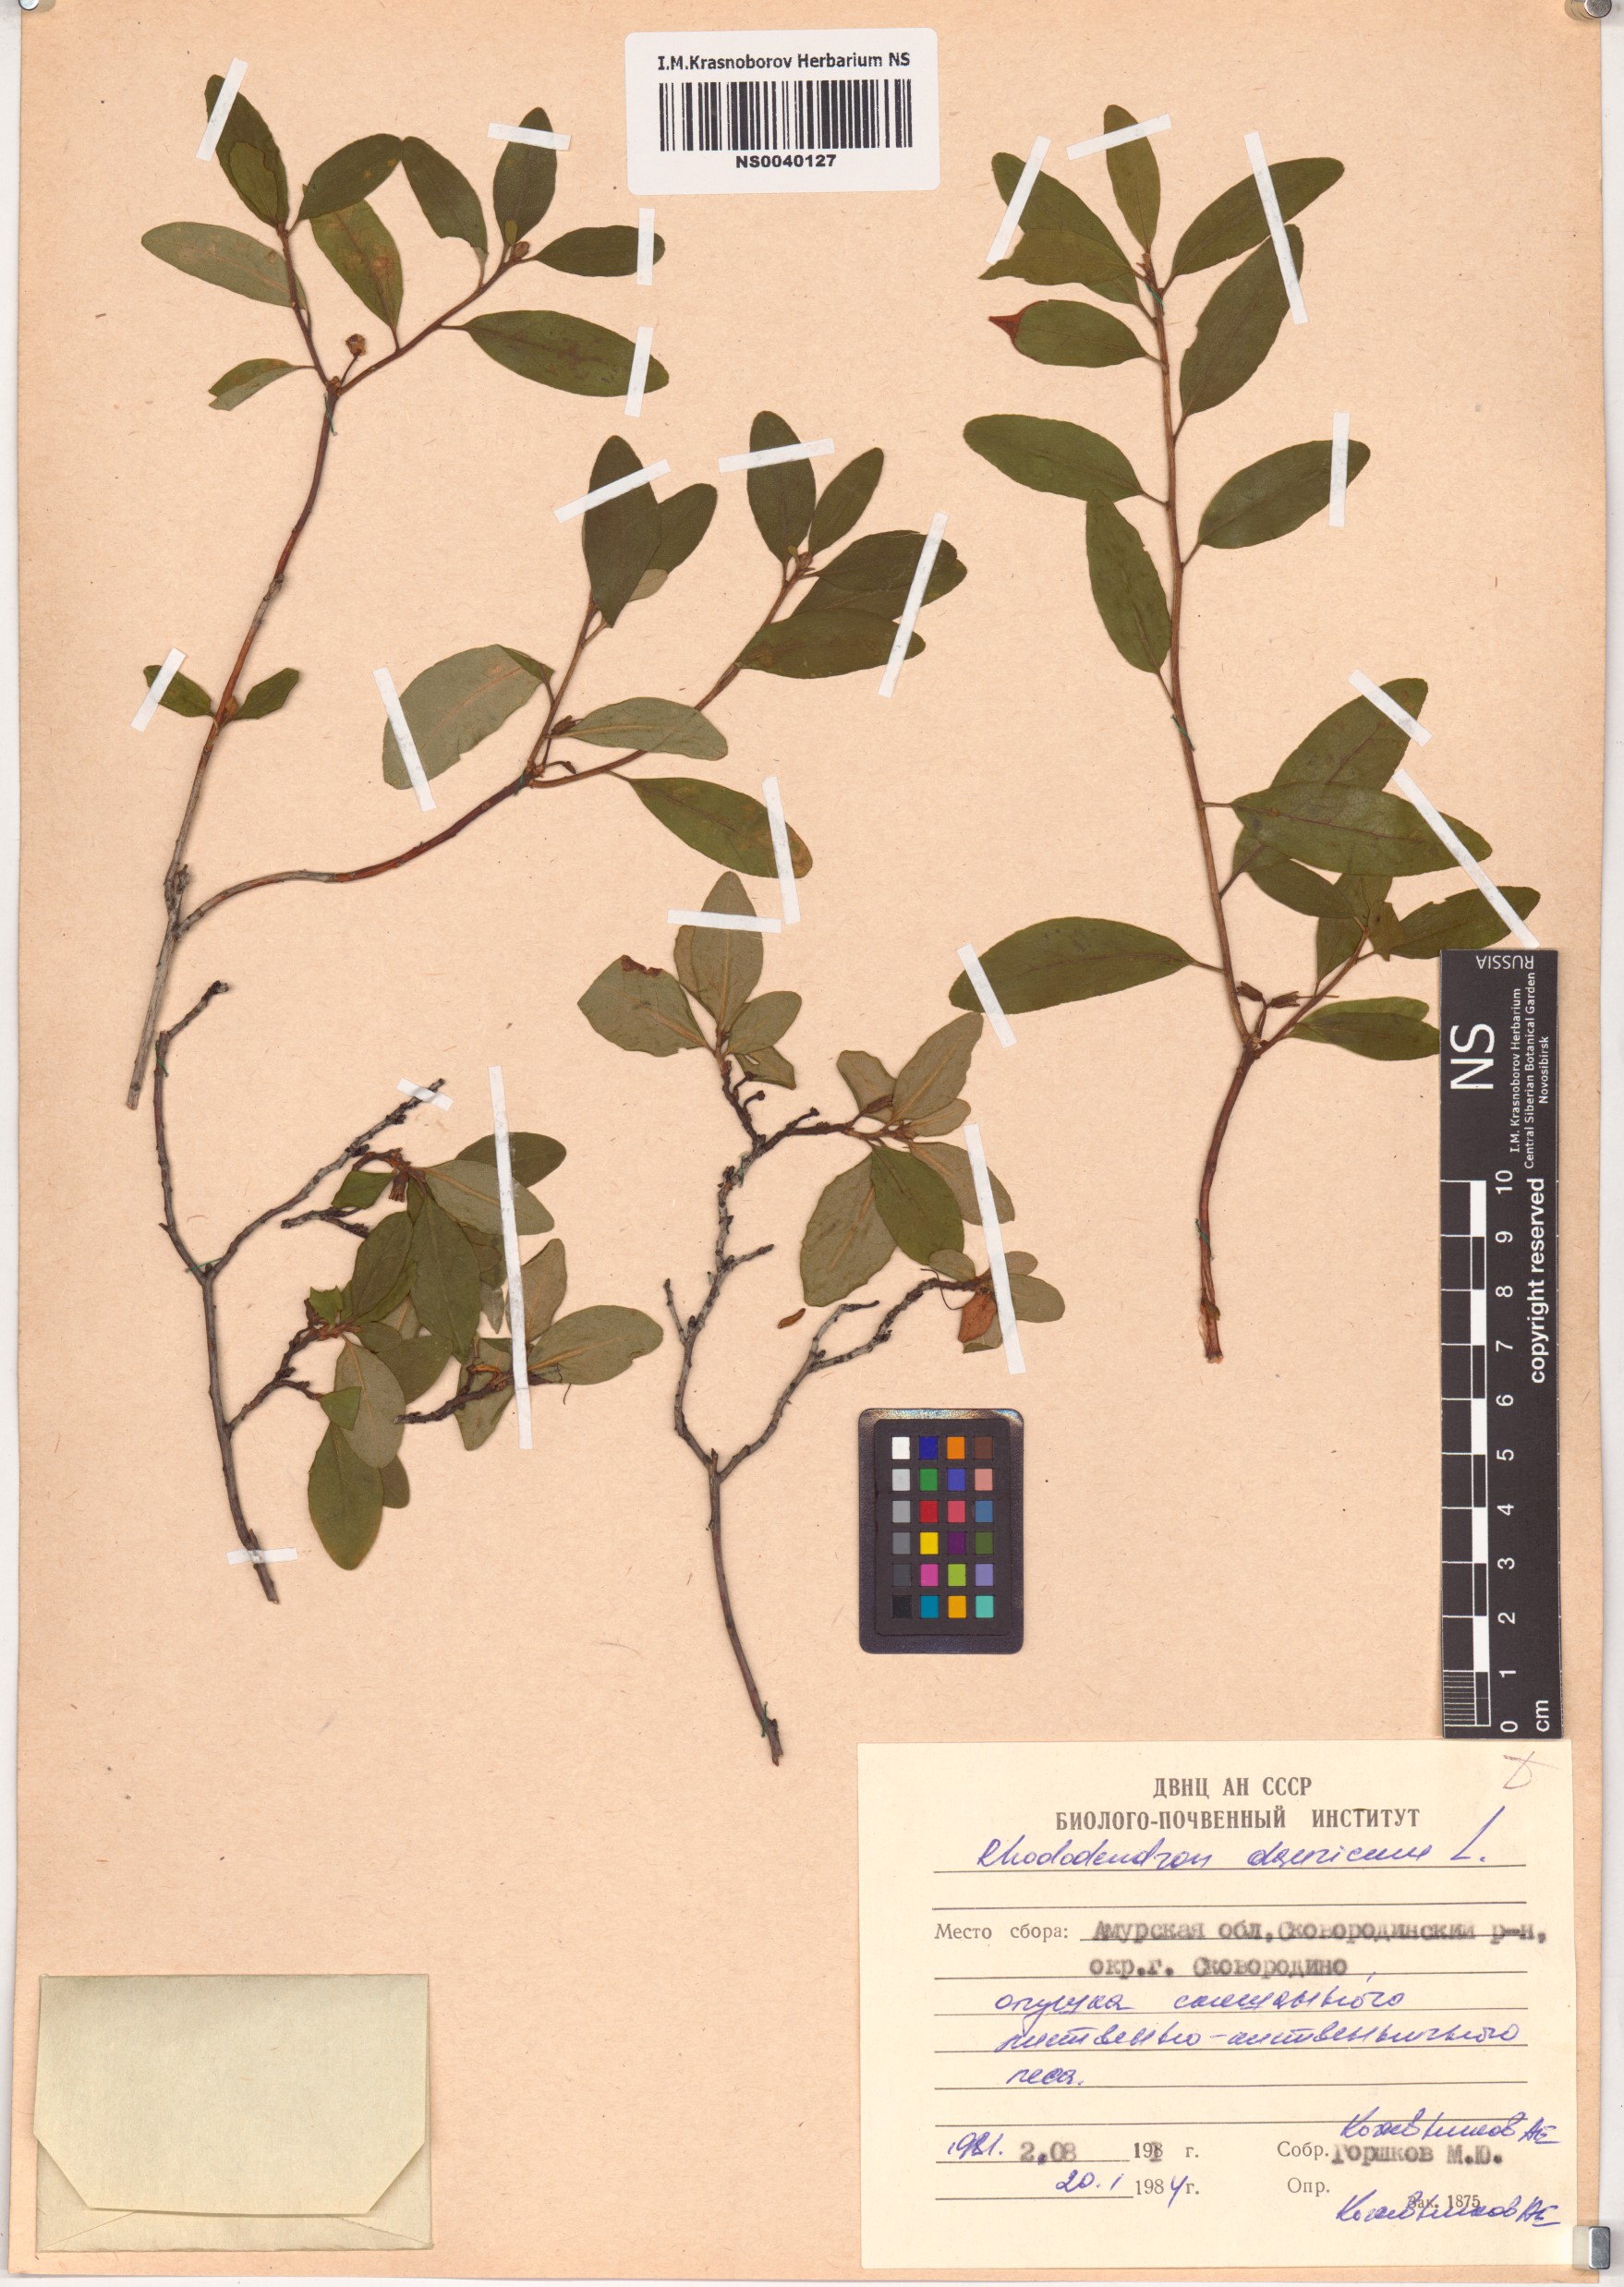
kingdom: Plantae
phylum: Tracheophyta
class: Magnoliopsida
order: Ericales
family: Ericaceae
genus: Rhododendron
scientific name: Rhododendron dauricum
